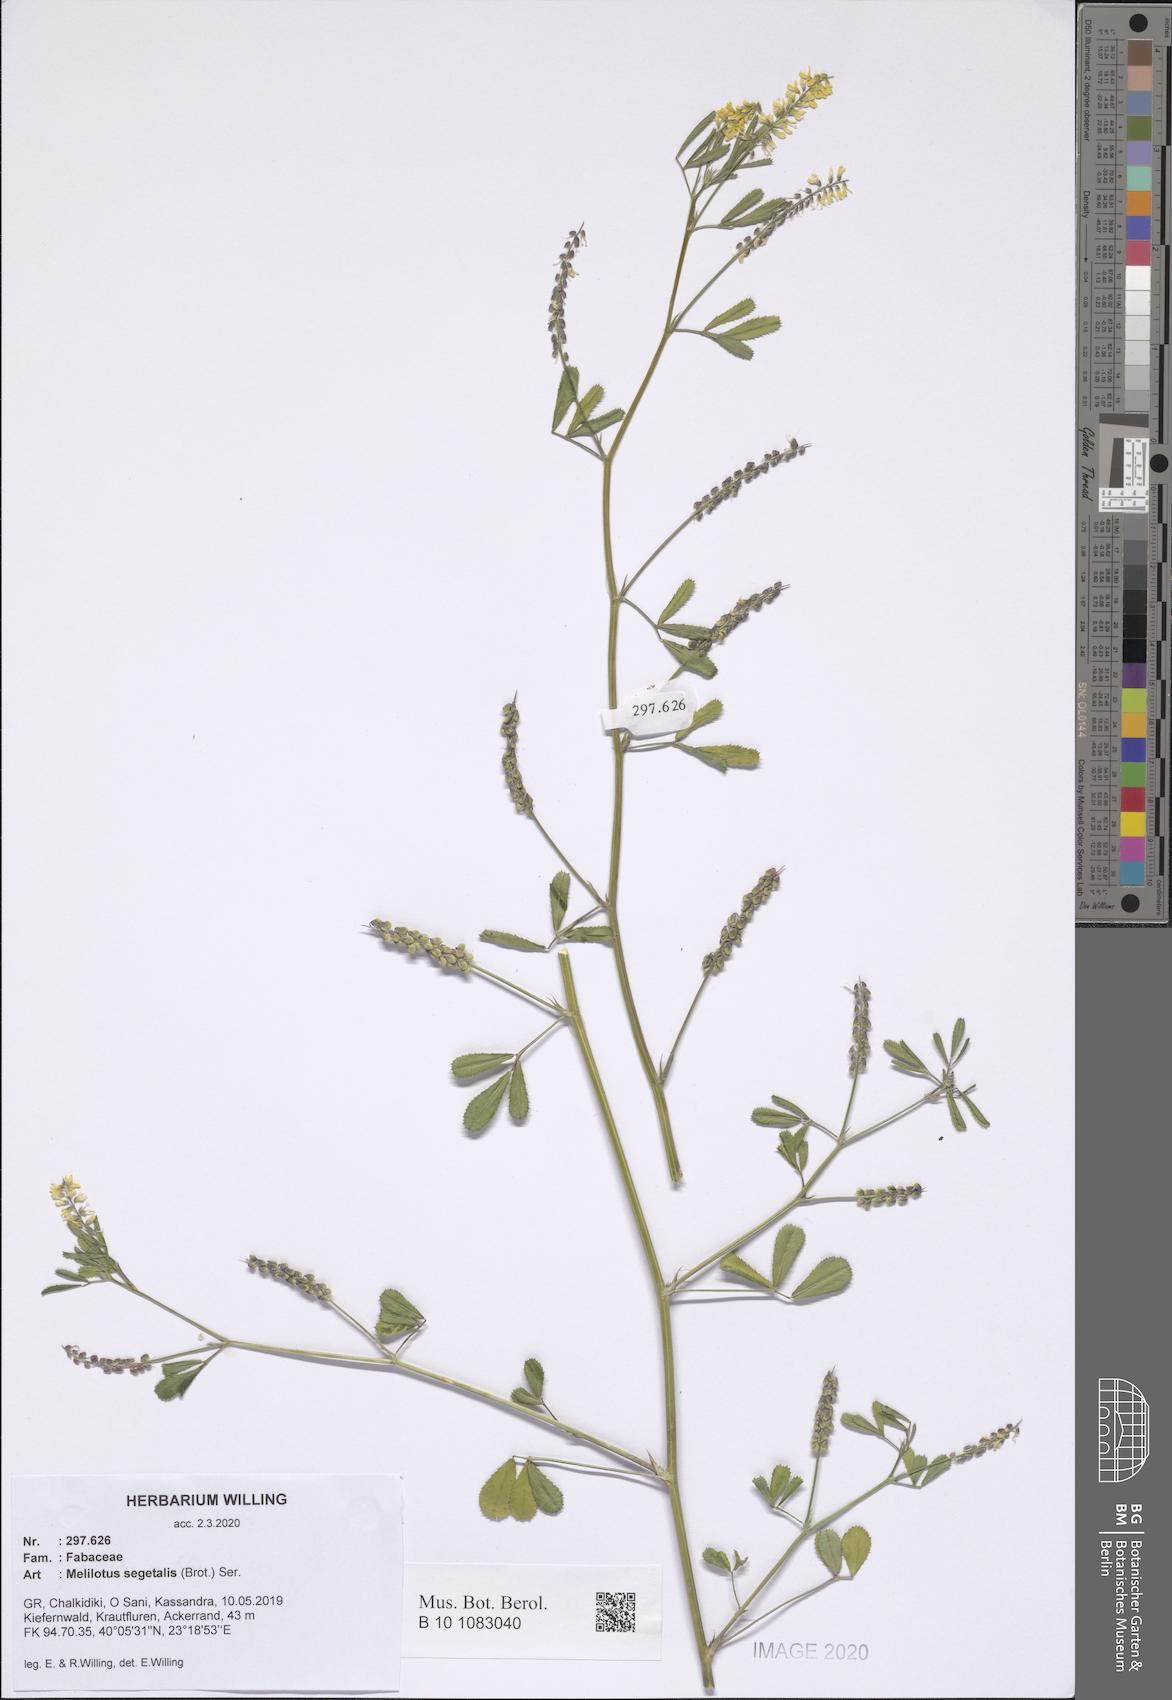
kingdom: Plantae
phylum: Tracheophyta
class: Magnoliopsida
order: Fabales
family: Fabaceae
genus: Melilotus
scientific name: Melilotus segetalis
